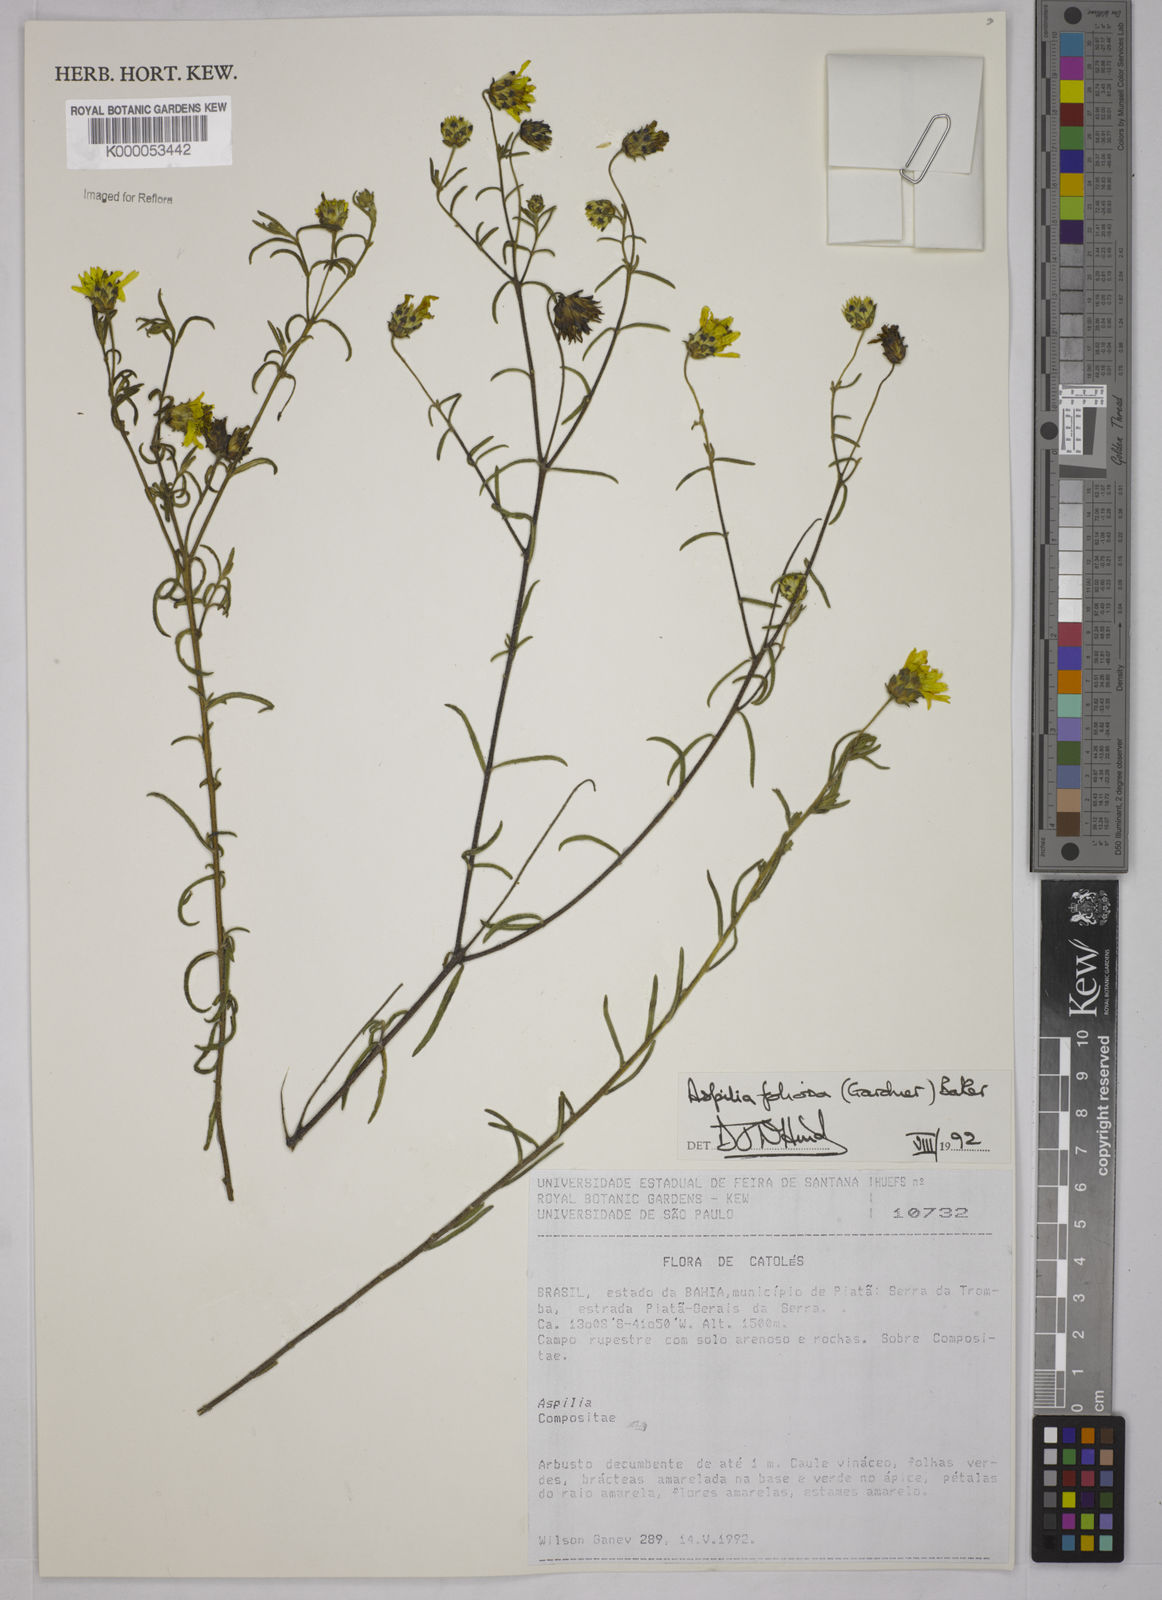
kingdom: Plantae
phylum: Tracheophyta
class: Magnoliopsida
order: Asterales
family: Asteraceae
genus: Aspilia
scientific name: Aspilia
